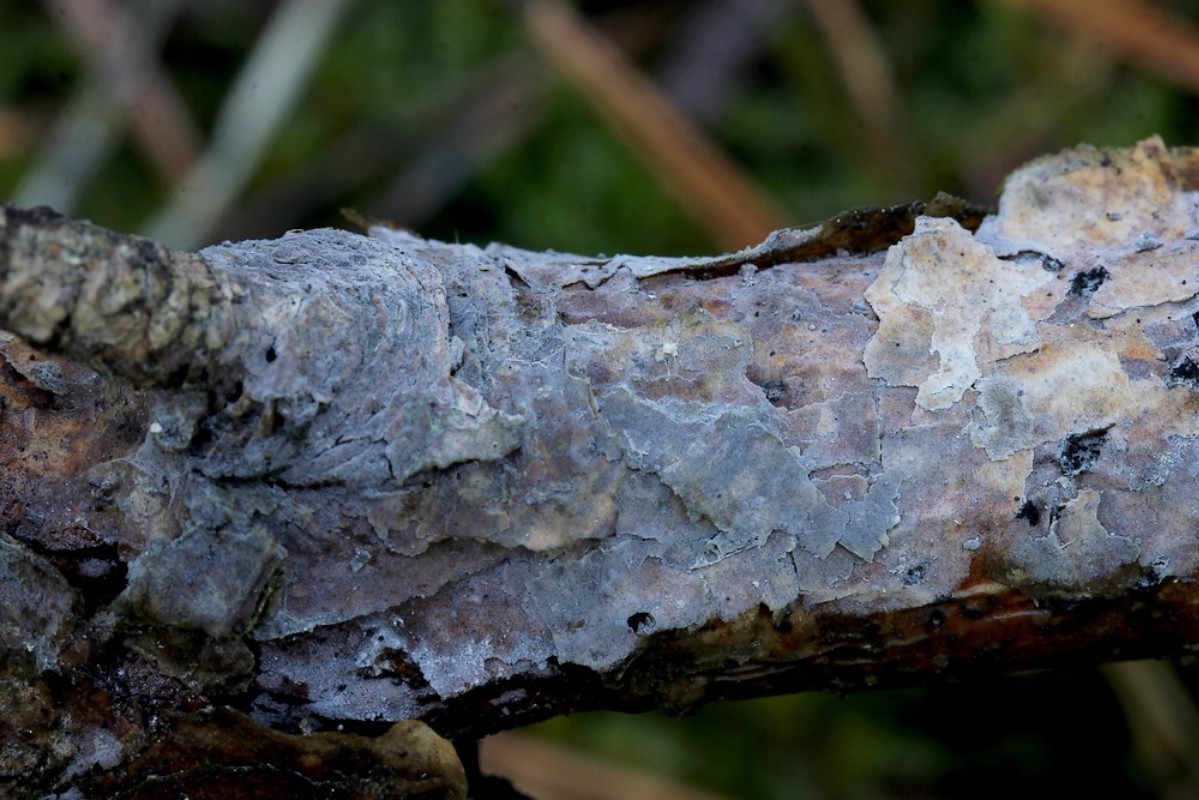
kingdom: Fungi
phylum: Basidiomycota
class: Agaricomycetes
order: Corticiales
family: Corticiaceae
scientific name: Corticiaceae
